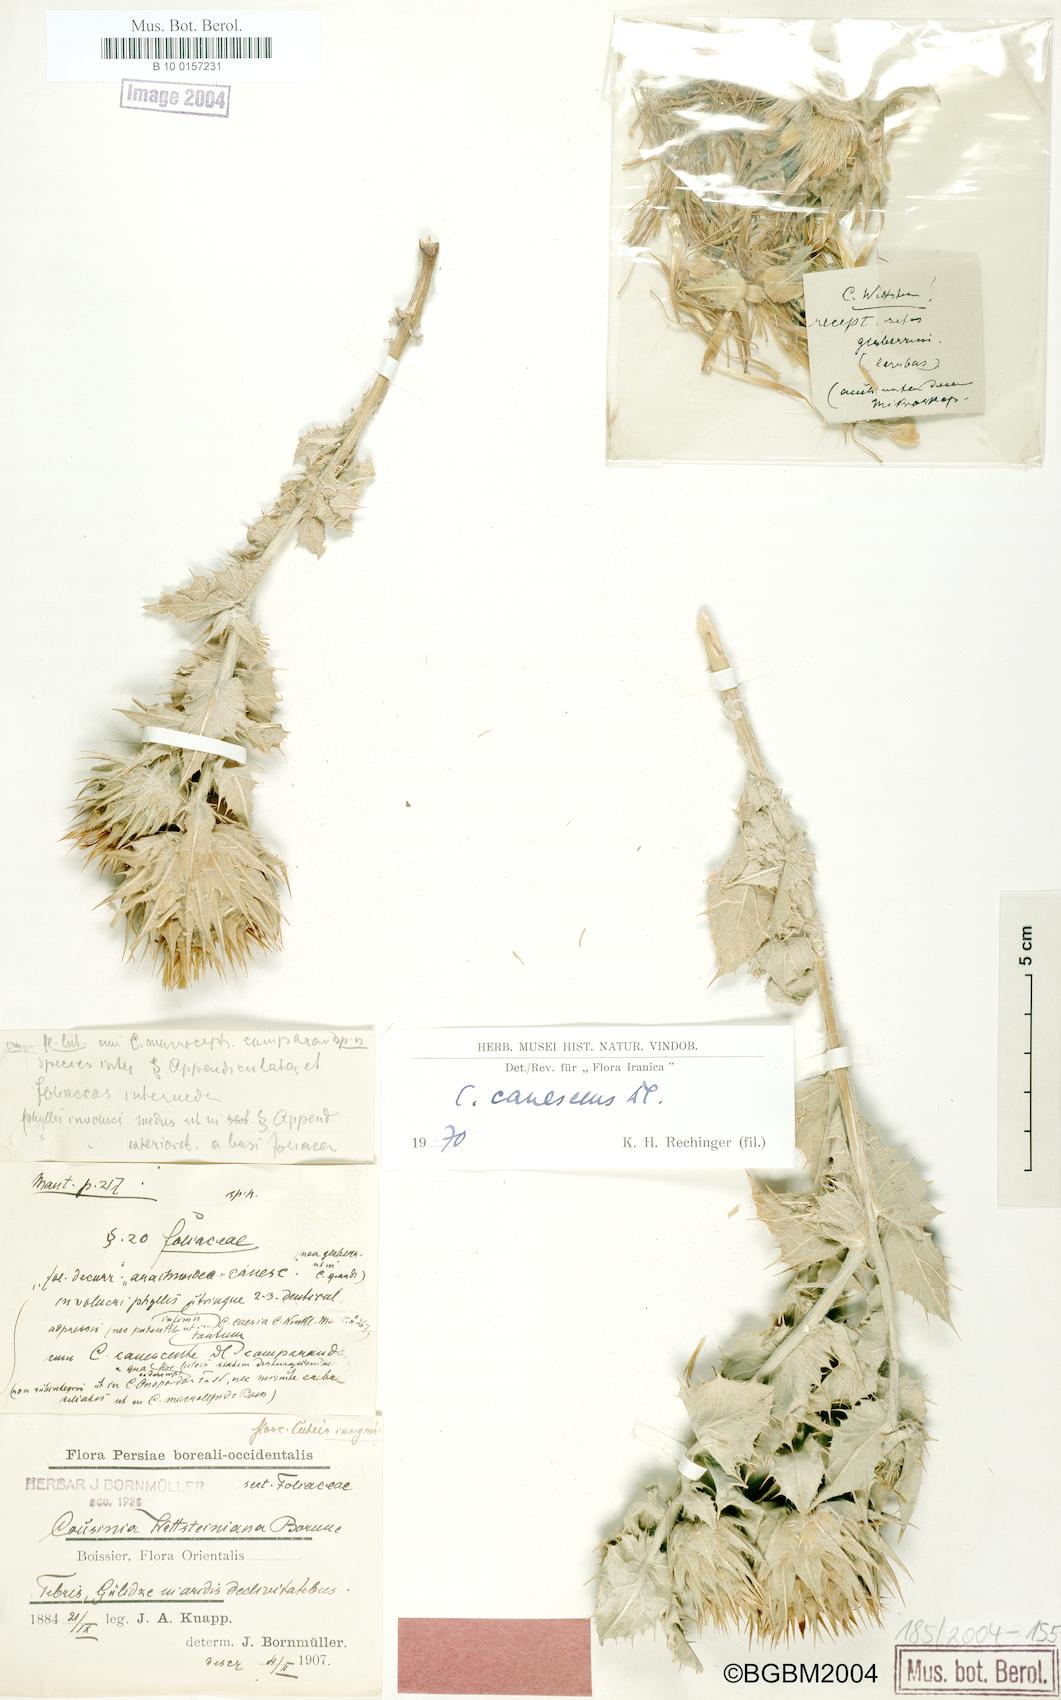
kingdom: Plantae
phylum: Tracheophyta
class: Magnoliopsida
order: Asterales
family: Asteraceae
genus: Cousinia
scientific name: Cousinia canescens
